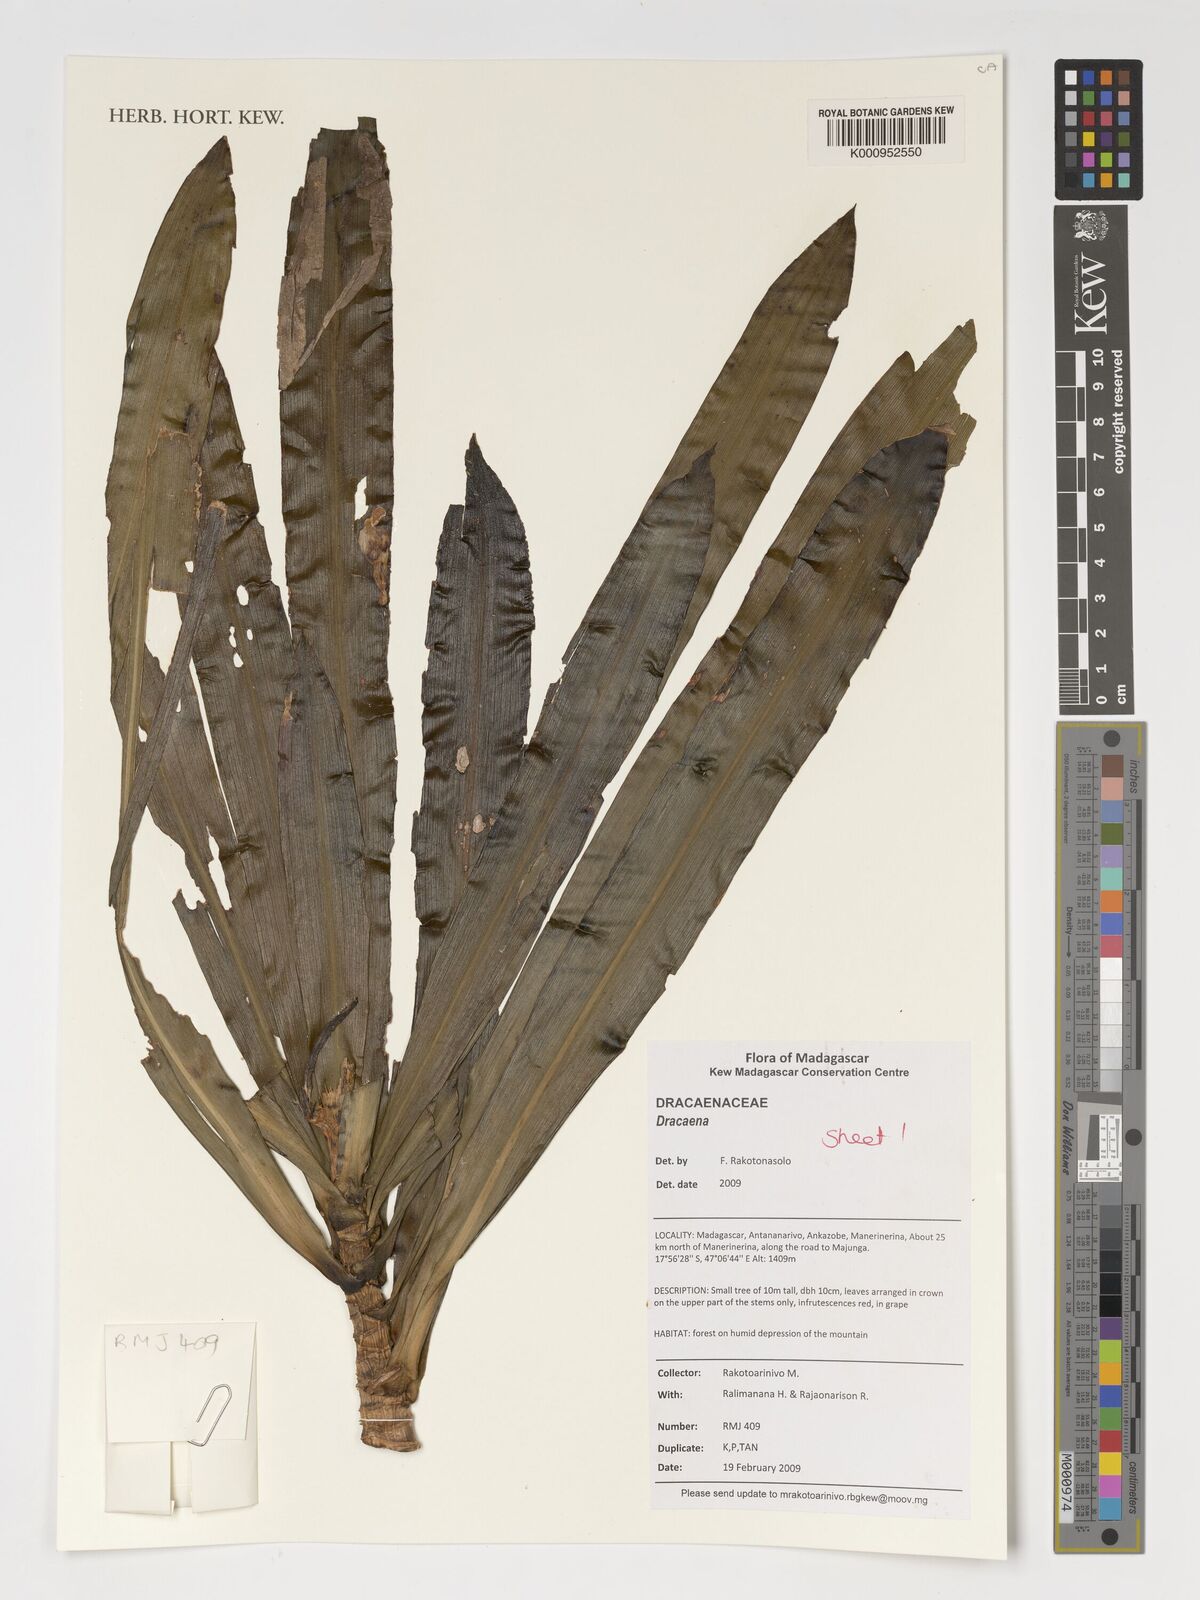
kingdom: Plantae
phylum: Tracheophyta
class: Liliopsida
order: Asparagales
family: Asparagaceae
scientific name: Asparagaceae
